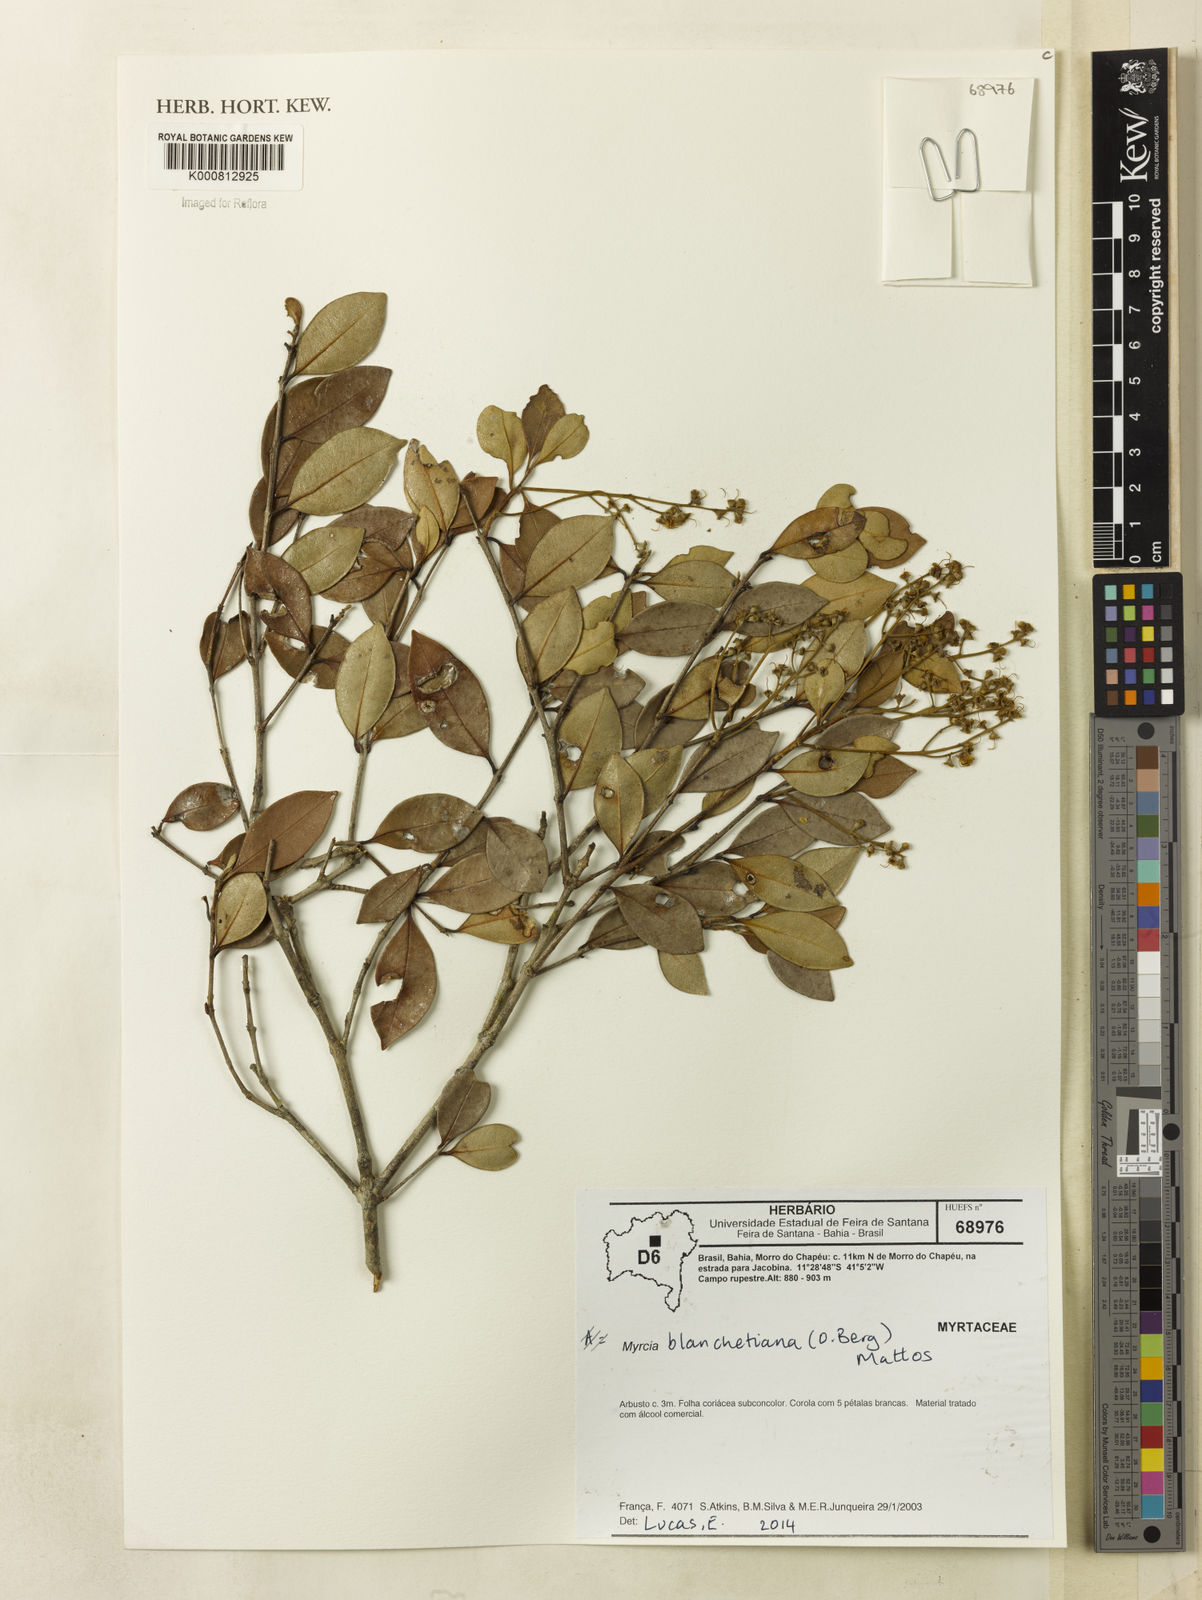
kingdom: Plantae
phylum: Tracheophyta
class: Magnoliopsida
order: Myrtales
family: Myrtaceae
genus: Myrcia
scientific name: Myrcia blanchetiana
